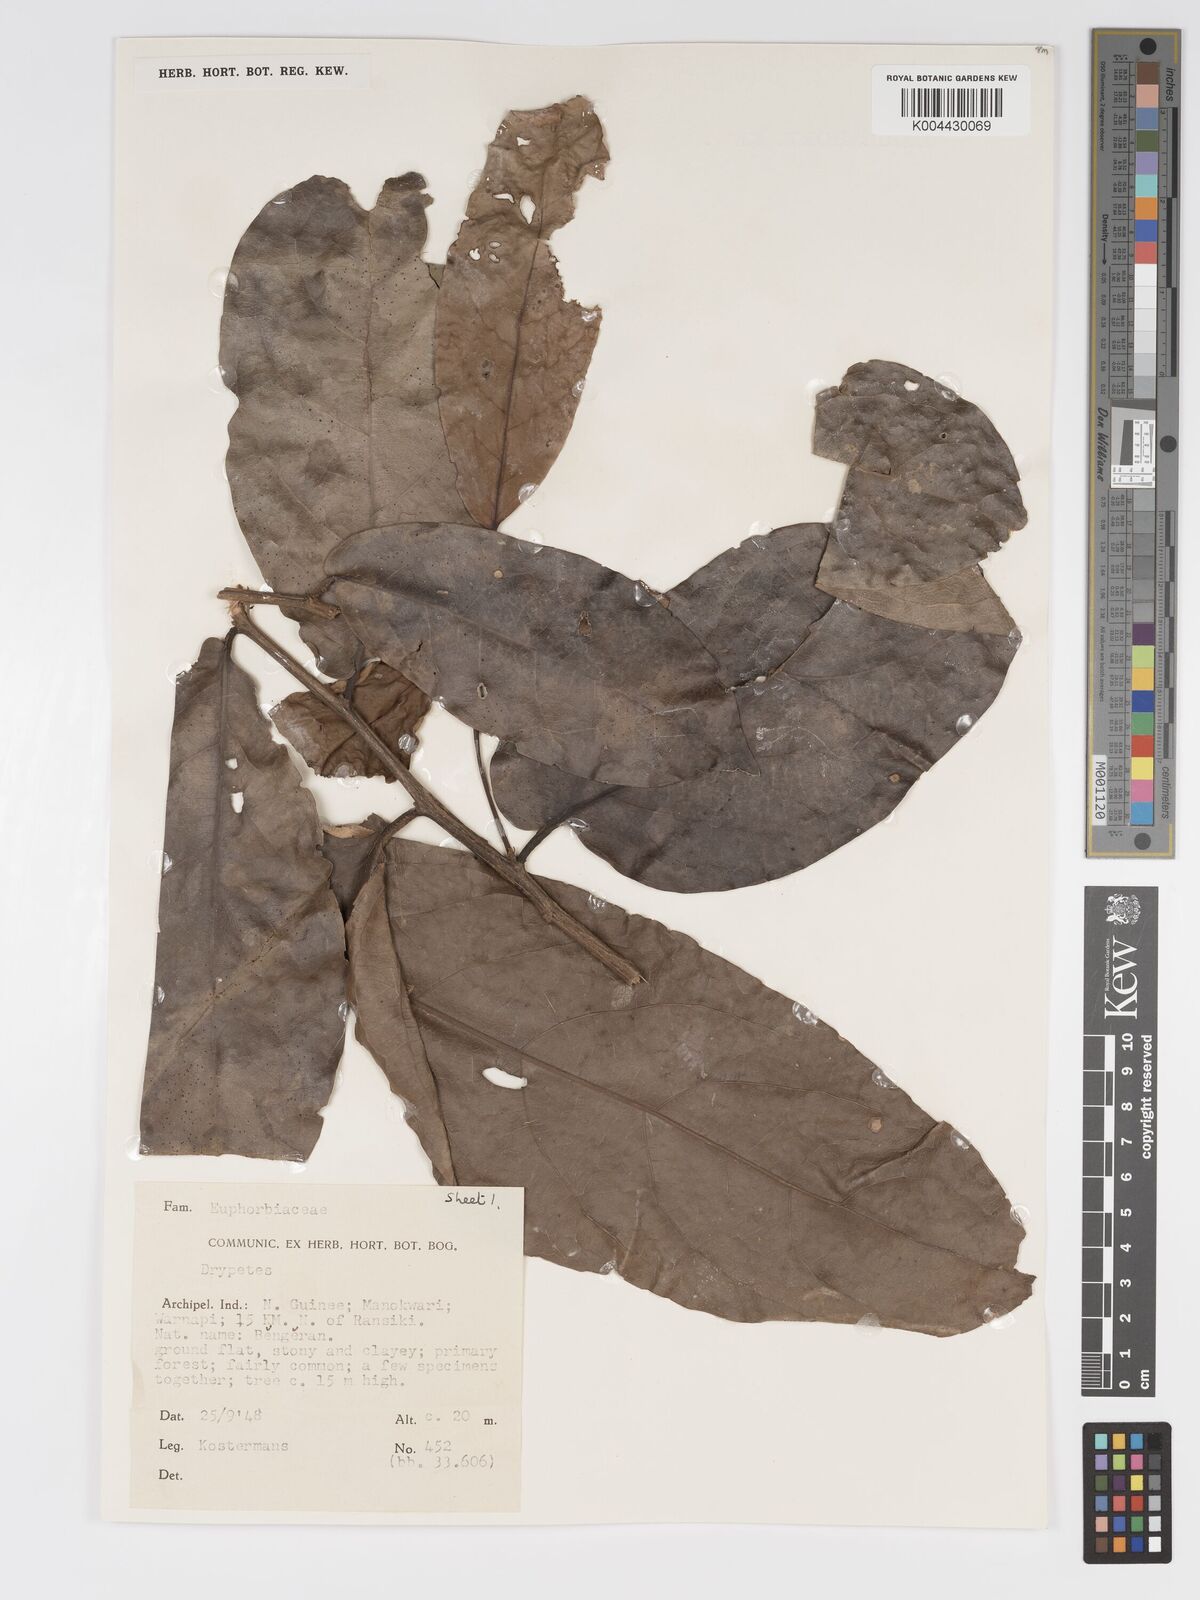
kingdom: Plantae
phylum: Tracheophyta
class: Magnoliopsida
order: Malpighiales
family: Putranjivaceae
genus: Drypetes
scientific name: Drypetes longifolia
